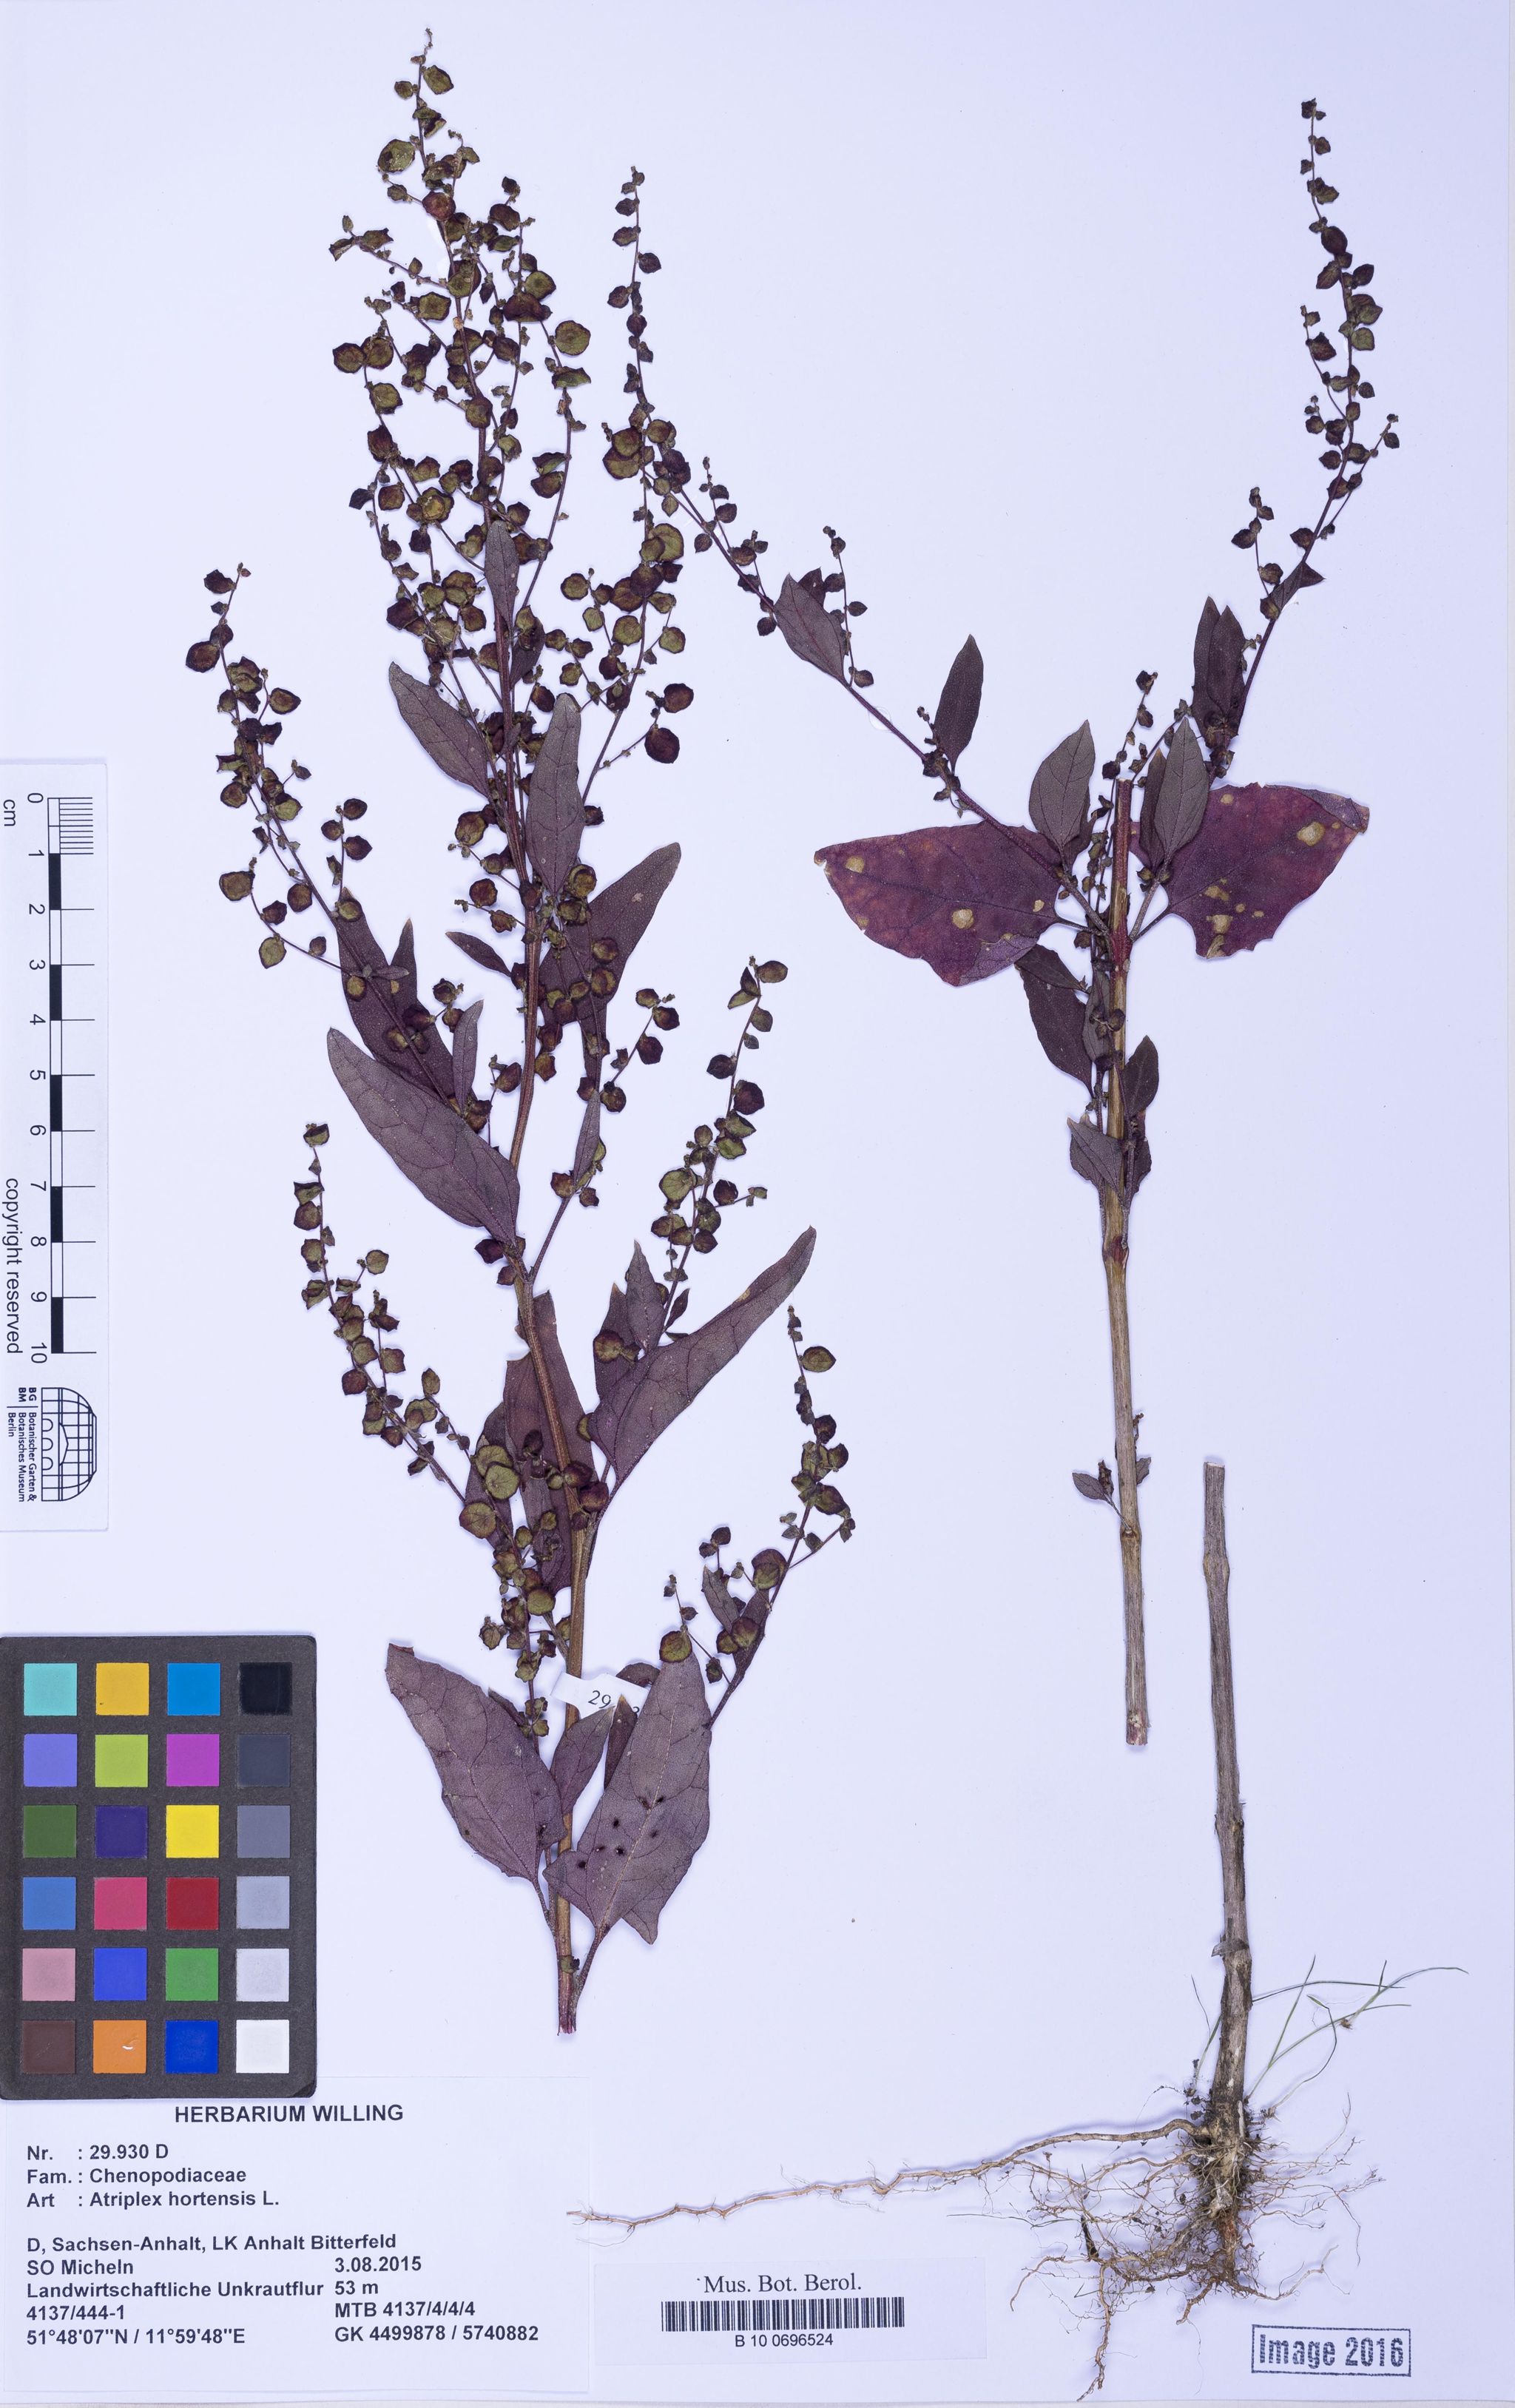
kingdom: Plantae
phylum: Tracheophyta
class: Magnoliopsida
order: Caryophyllales
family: Amaranthaceae
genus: Atriplex
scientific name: Atriplex hortensis
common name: Garden orache
